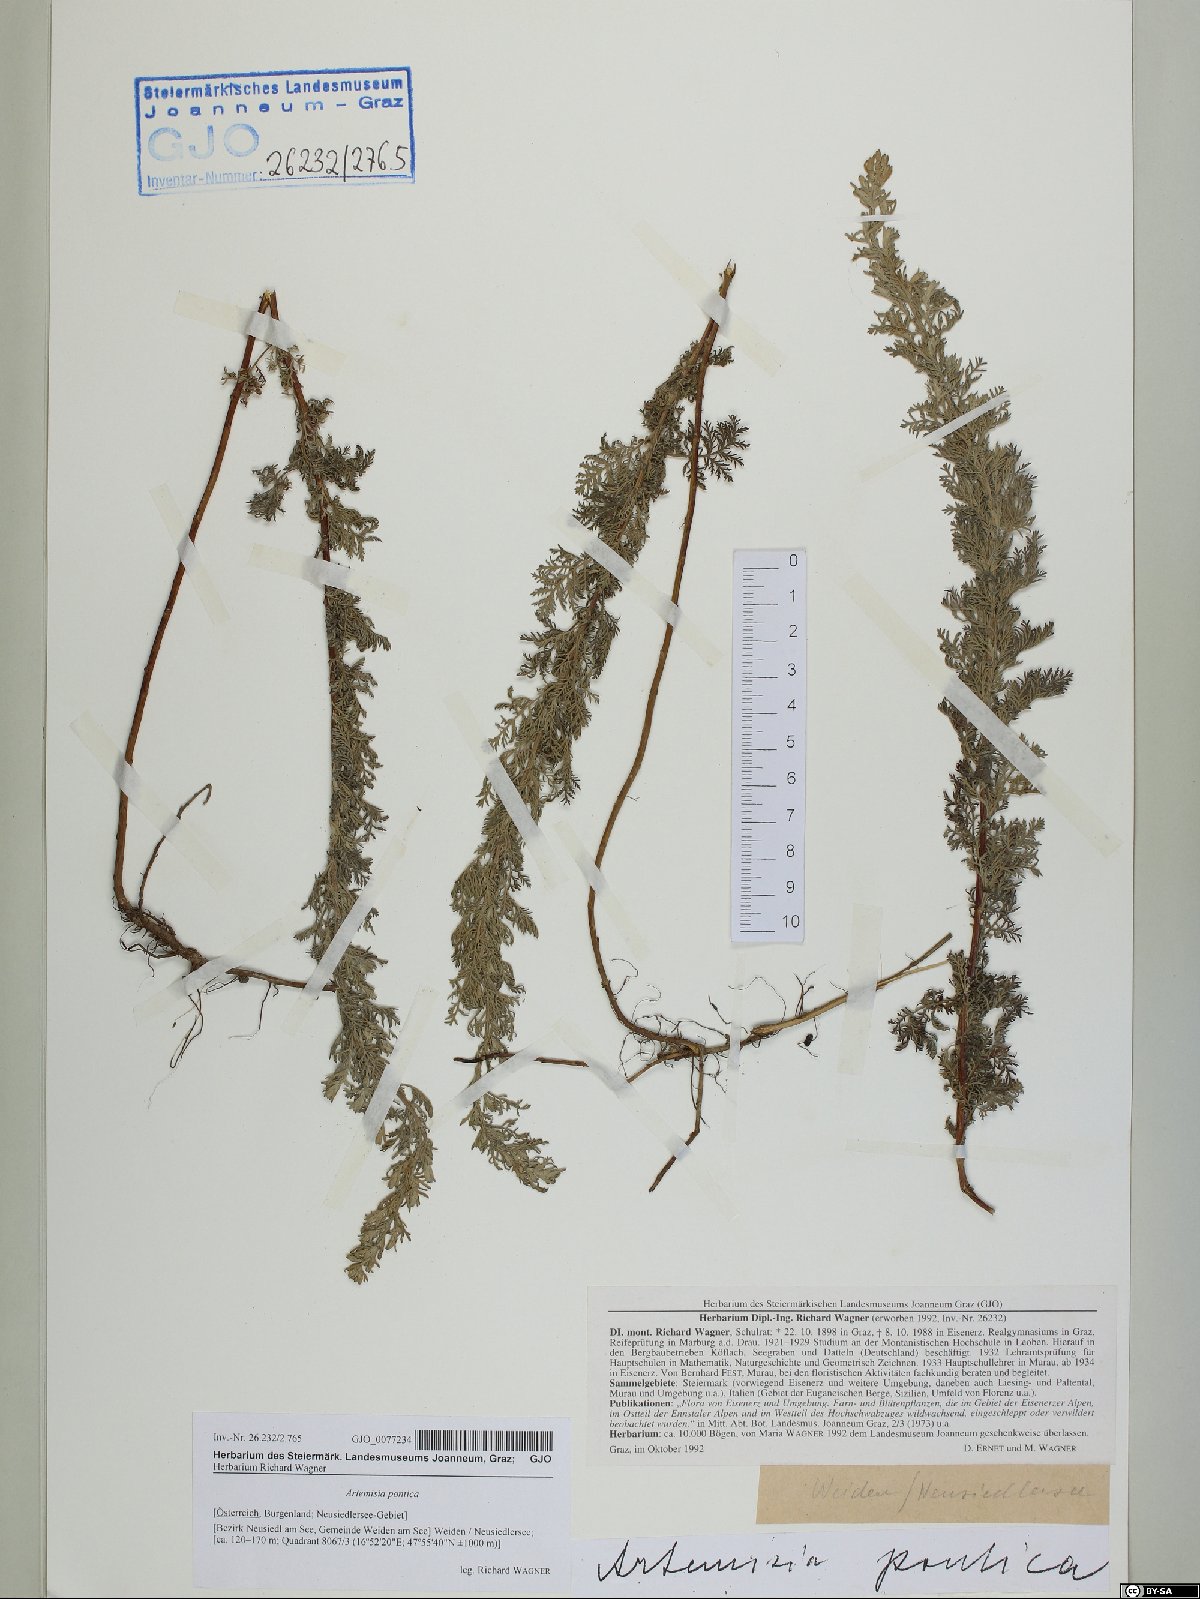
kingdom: Plantae
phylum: Tracheophyta
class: Magnoliopsida
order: Asterales
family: Asteraceae
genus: Artemisia
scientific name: Artemisia pontica
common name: Roman wormwood
